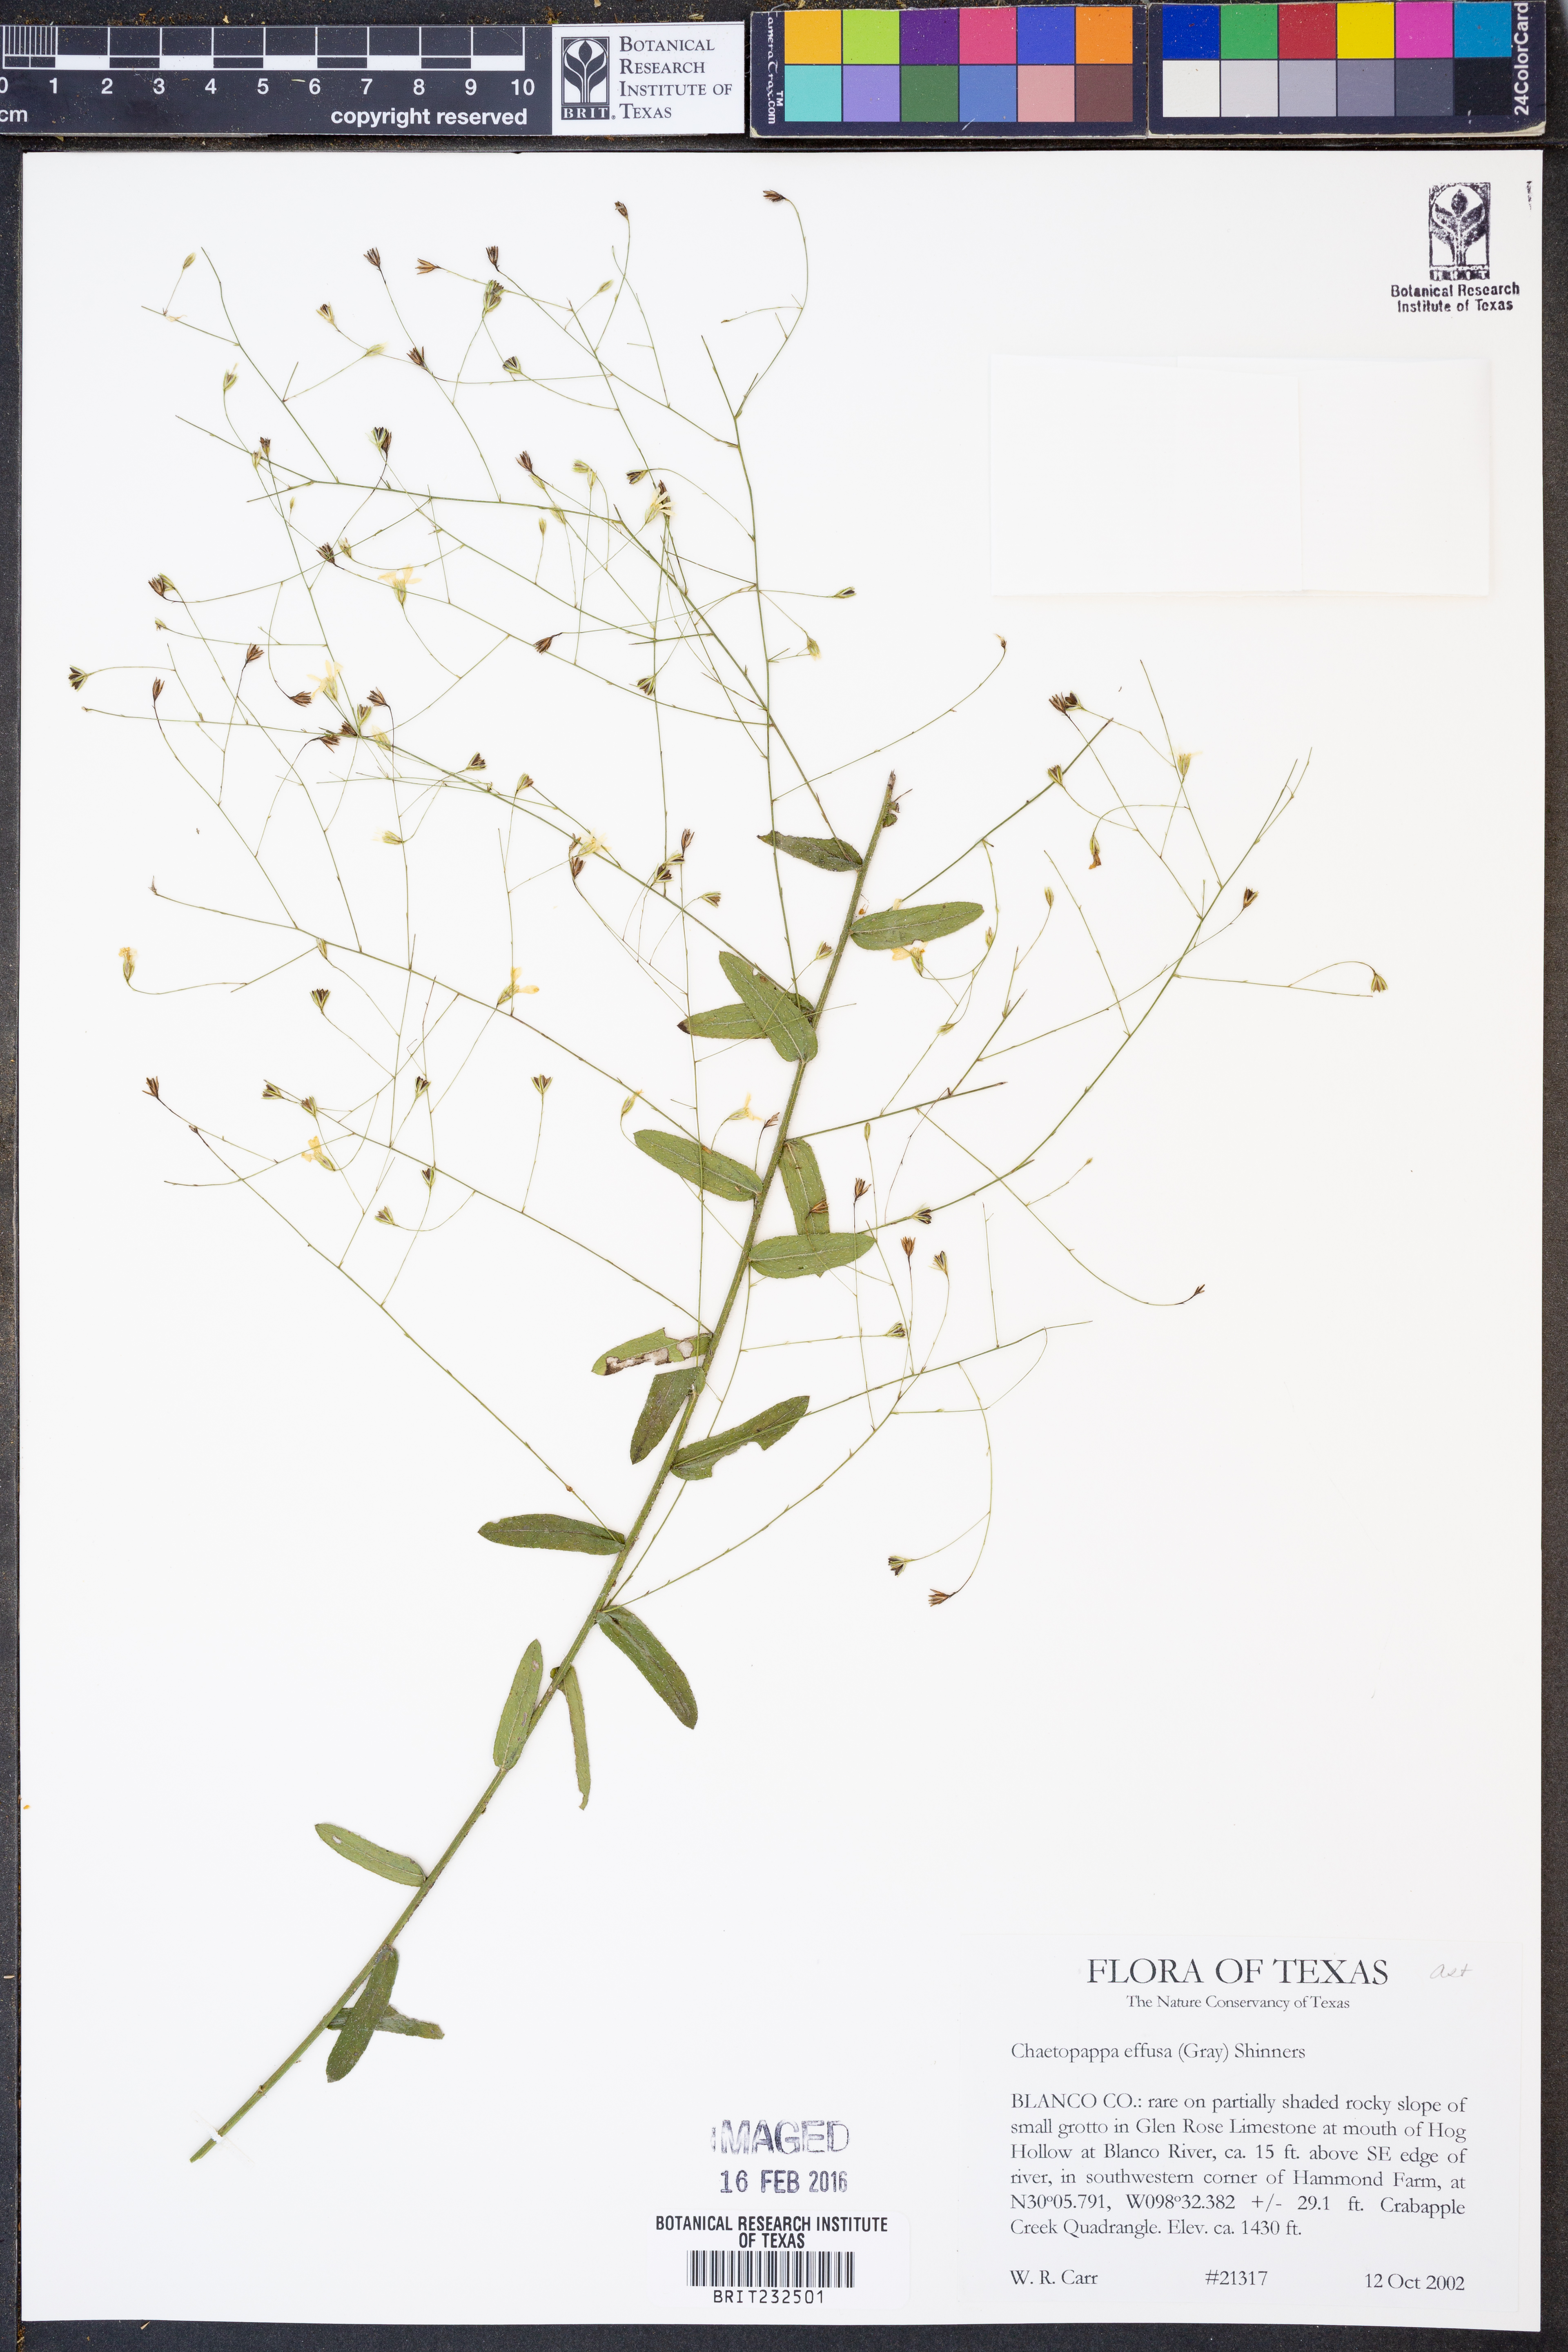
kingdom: Plantae
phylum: Tracheophyta
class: Magnoliopsida
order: Asterales
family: Asteraceae
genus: Chaetopappa
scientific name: Chaetopappa effusa
